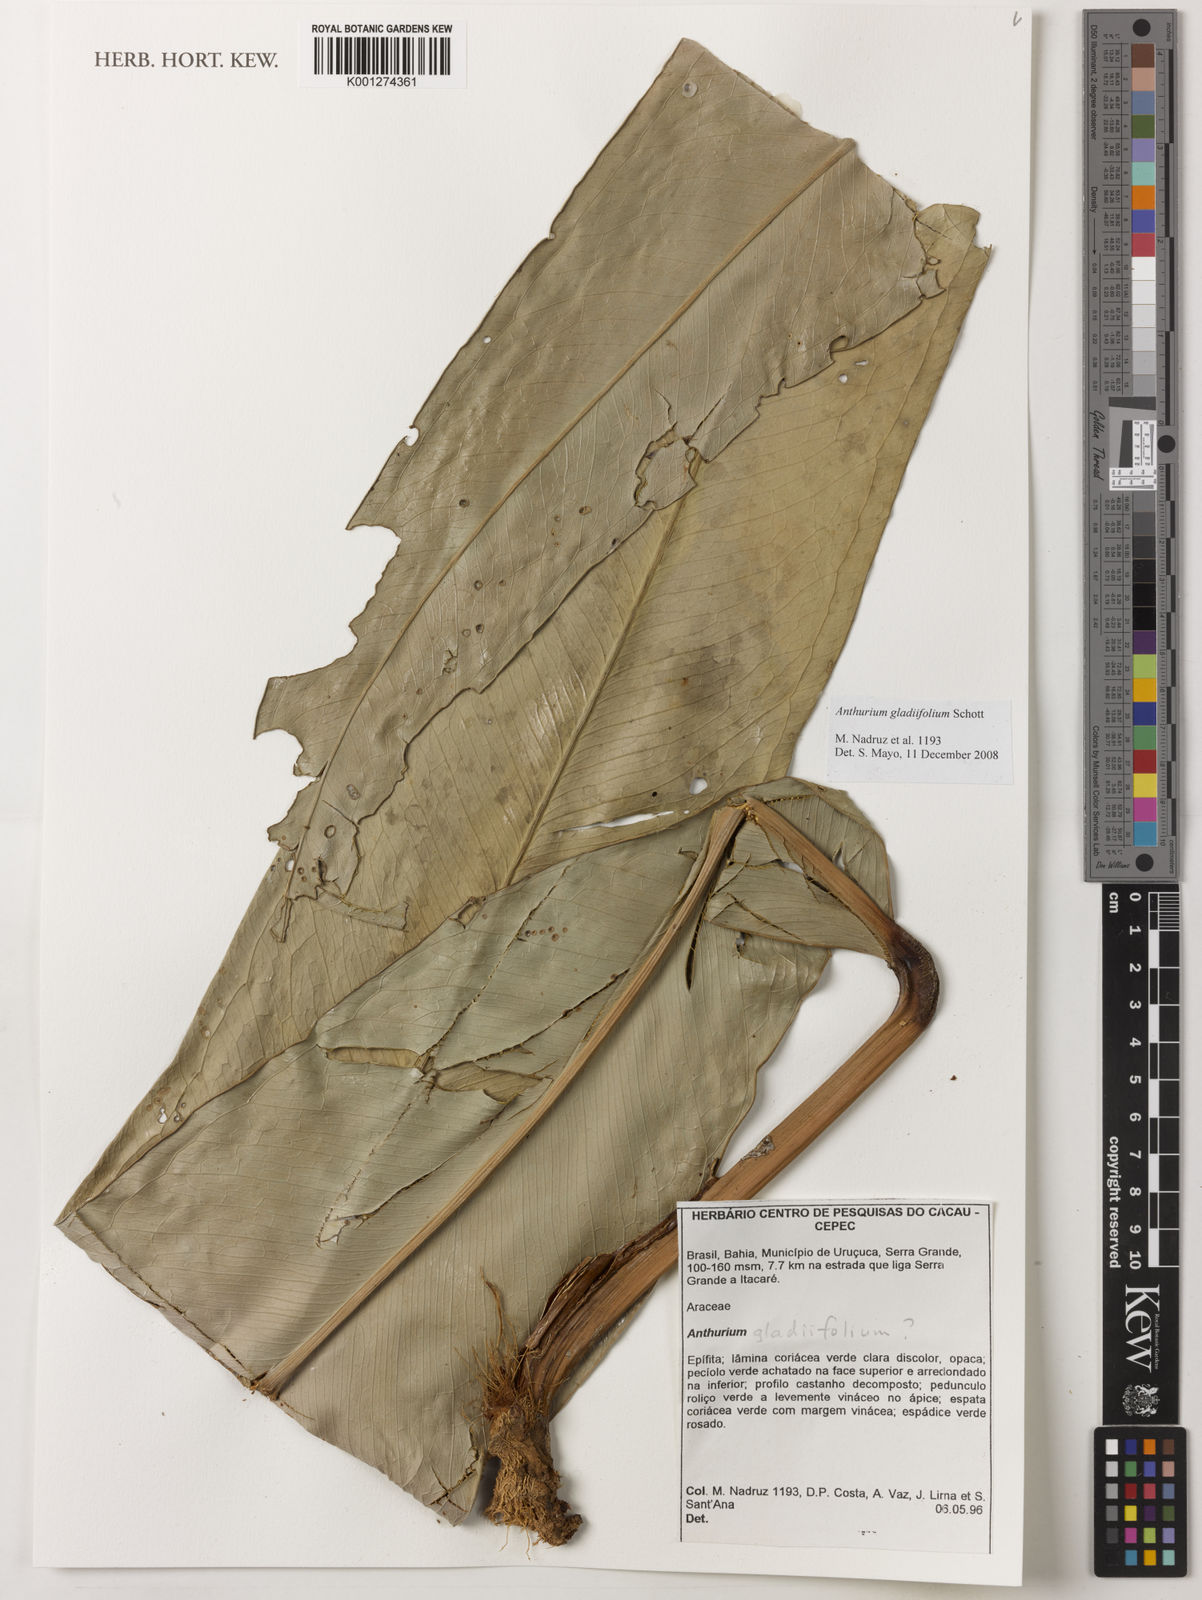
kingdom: Plantae
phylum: Tracheophyta
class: Liliopsida
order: Alismatales
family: Araceae
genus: Anthurium
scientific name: Anthurium gladiifolium
